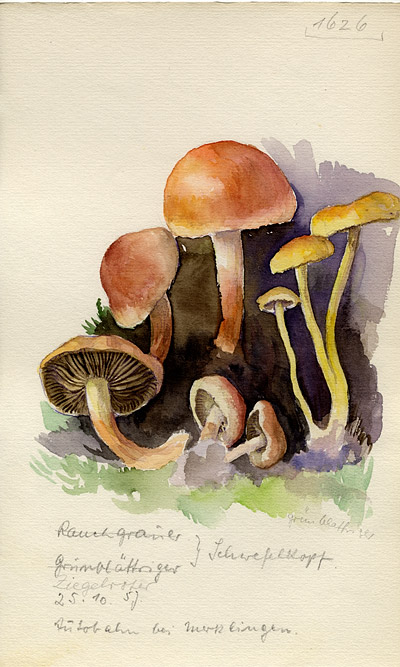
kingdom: Fungi
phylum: Basidiomycota
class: Agaricomycetes
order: Agaricales
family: Strophariaceae
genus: Hypholoma
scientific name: Hypholoma fasciculare
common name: Sulphur tuft
